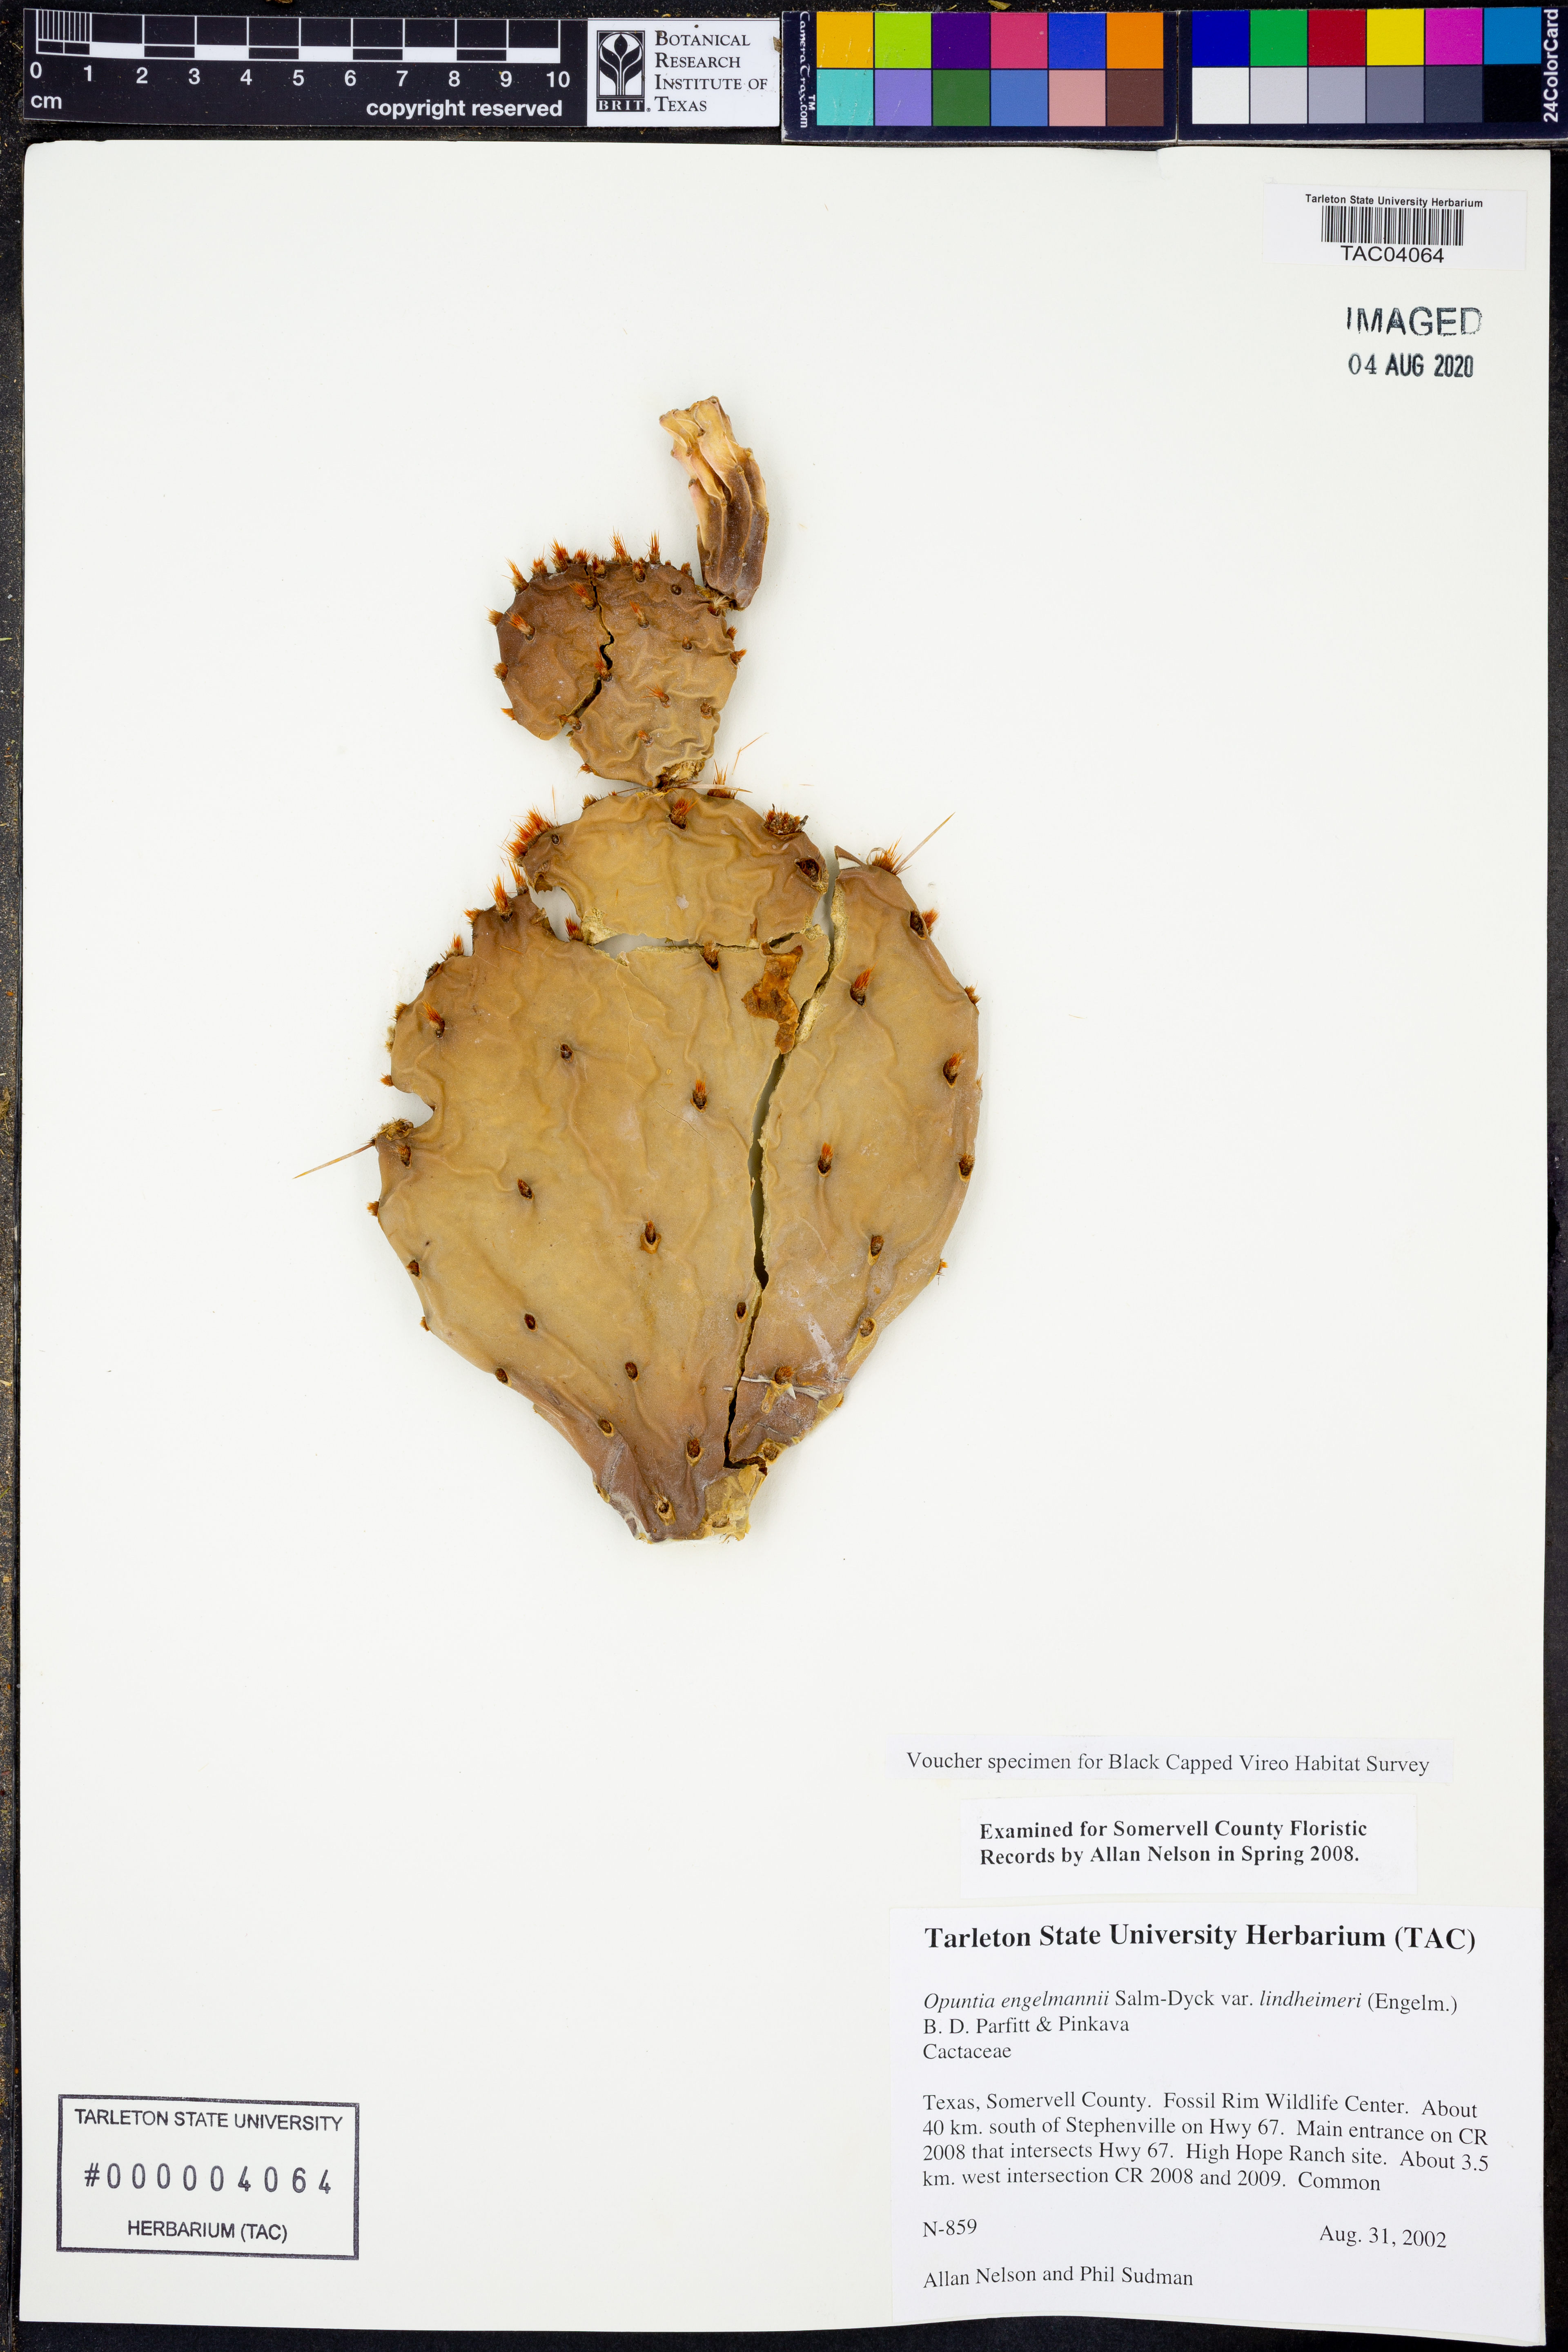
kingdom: Plantae
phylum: Tracheophyta
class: Magnoliopsida
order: Caryophyllales
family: Cactaceae
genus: Opuntia
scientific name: Opuntia engelmannii
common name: Cactus-apple
